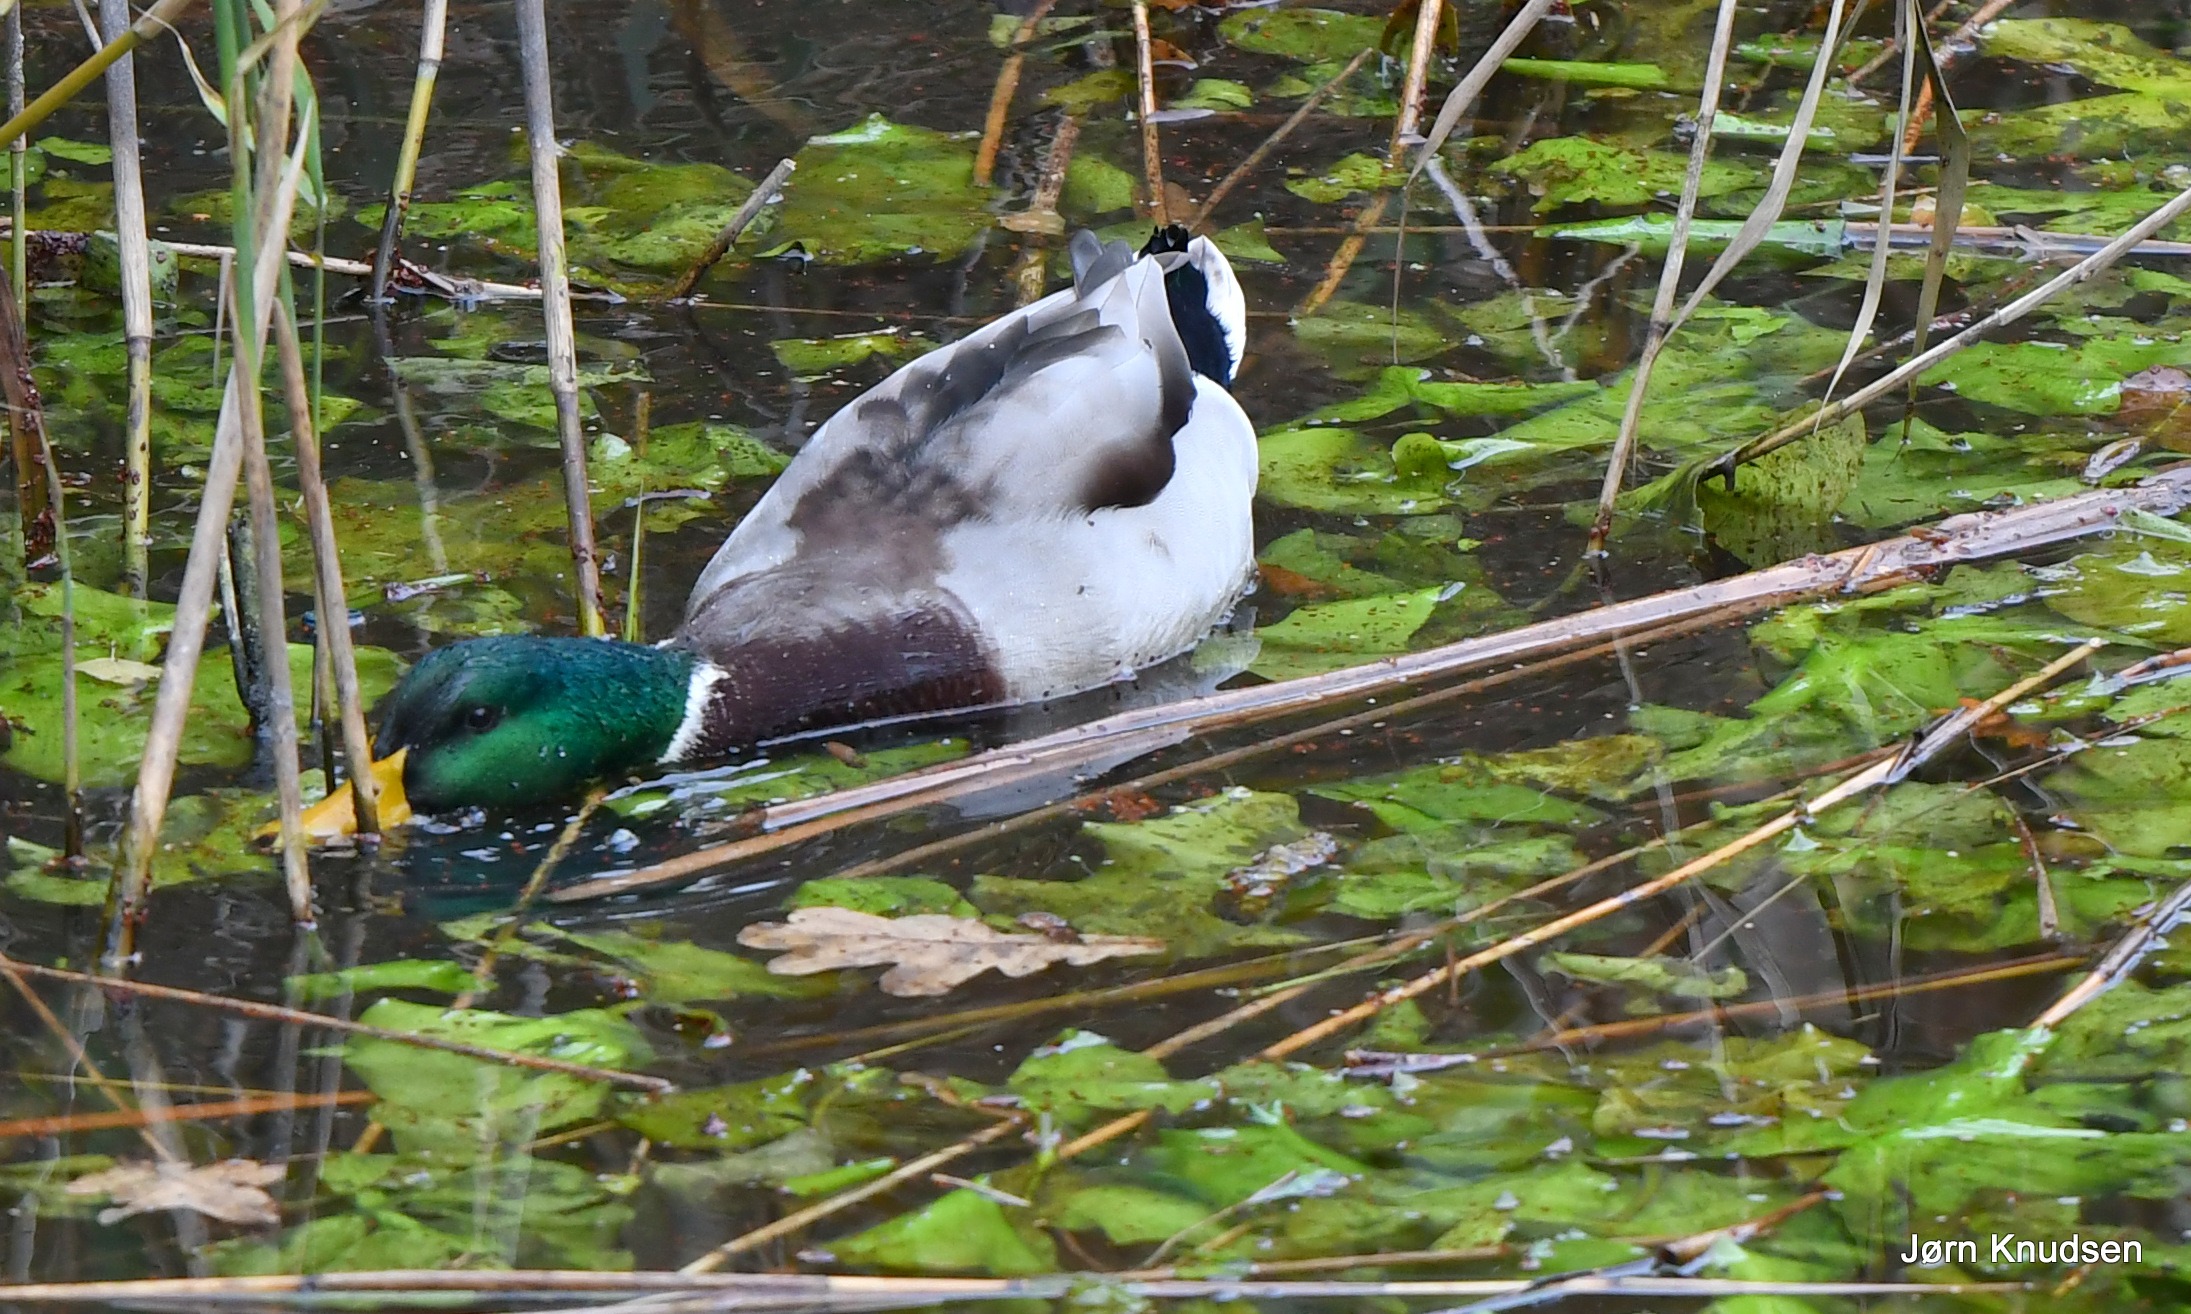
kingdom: Animalia
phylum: Chordata
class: Aves
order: Anseriformes
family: Anatidae
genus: Anas
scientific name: Anas platyrhynchos
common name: Gråand
